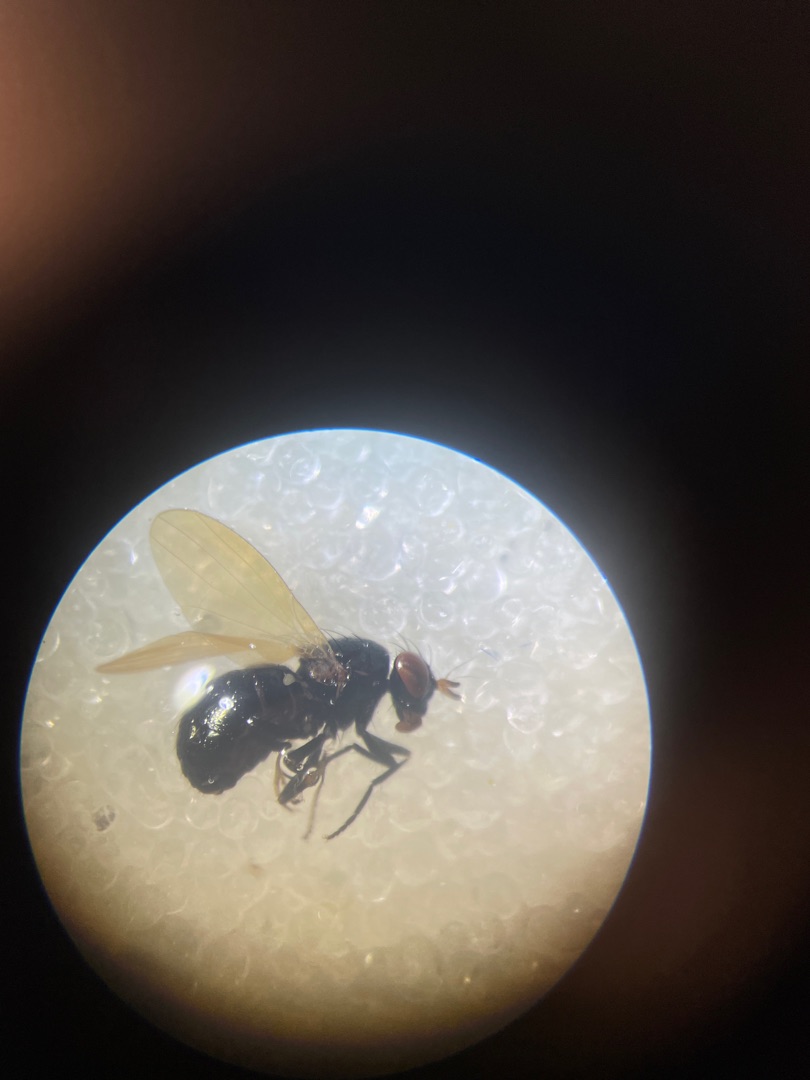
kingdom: Animalia
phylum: Arthropoda
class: Insecta
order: Diptera
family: Lauxaniidae
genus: Calliopum
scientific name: Calliopum
